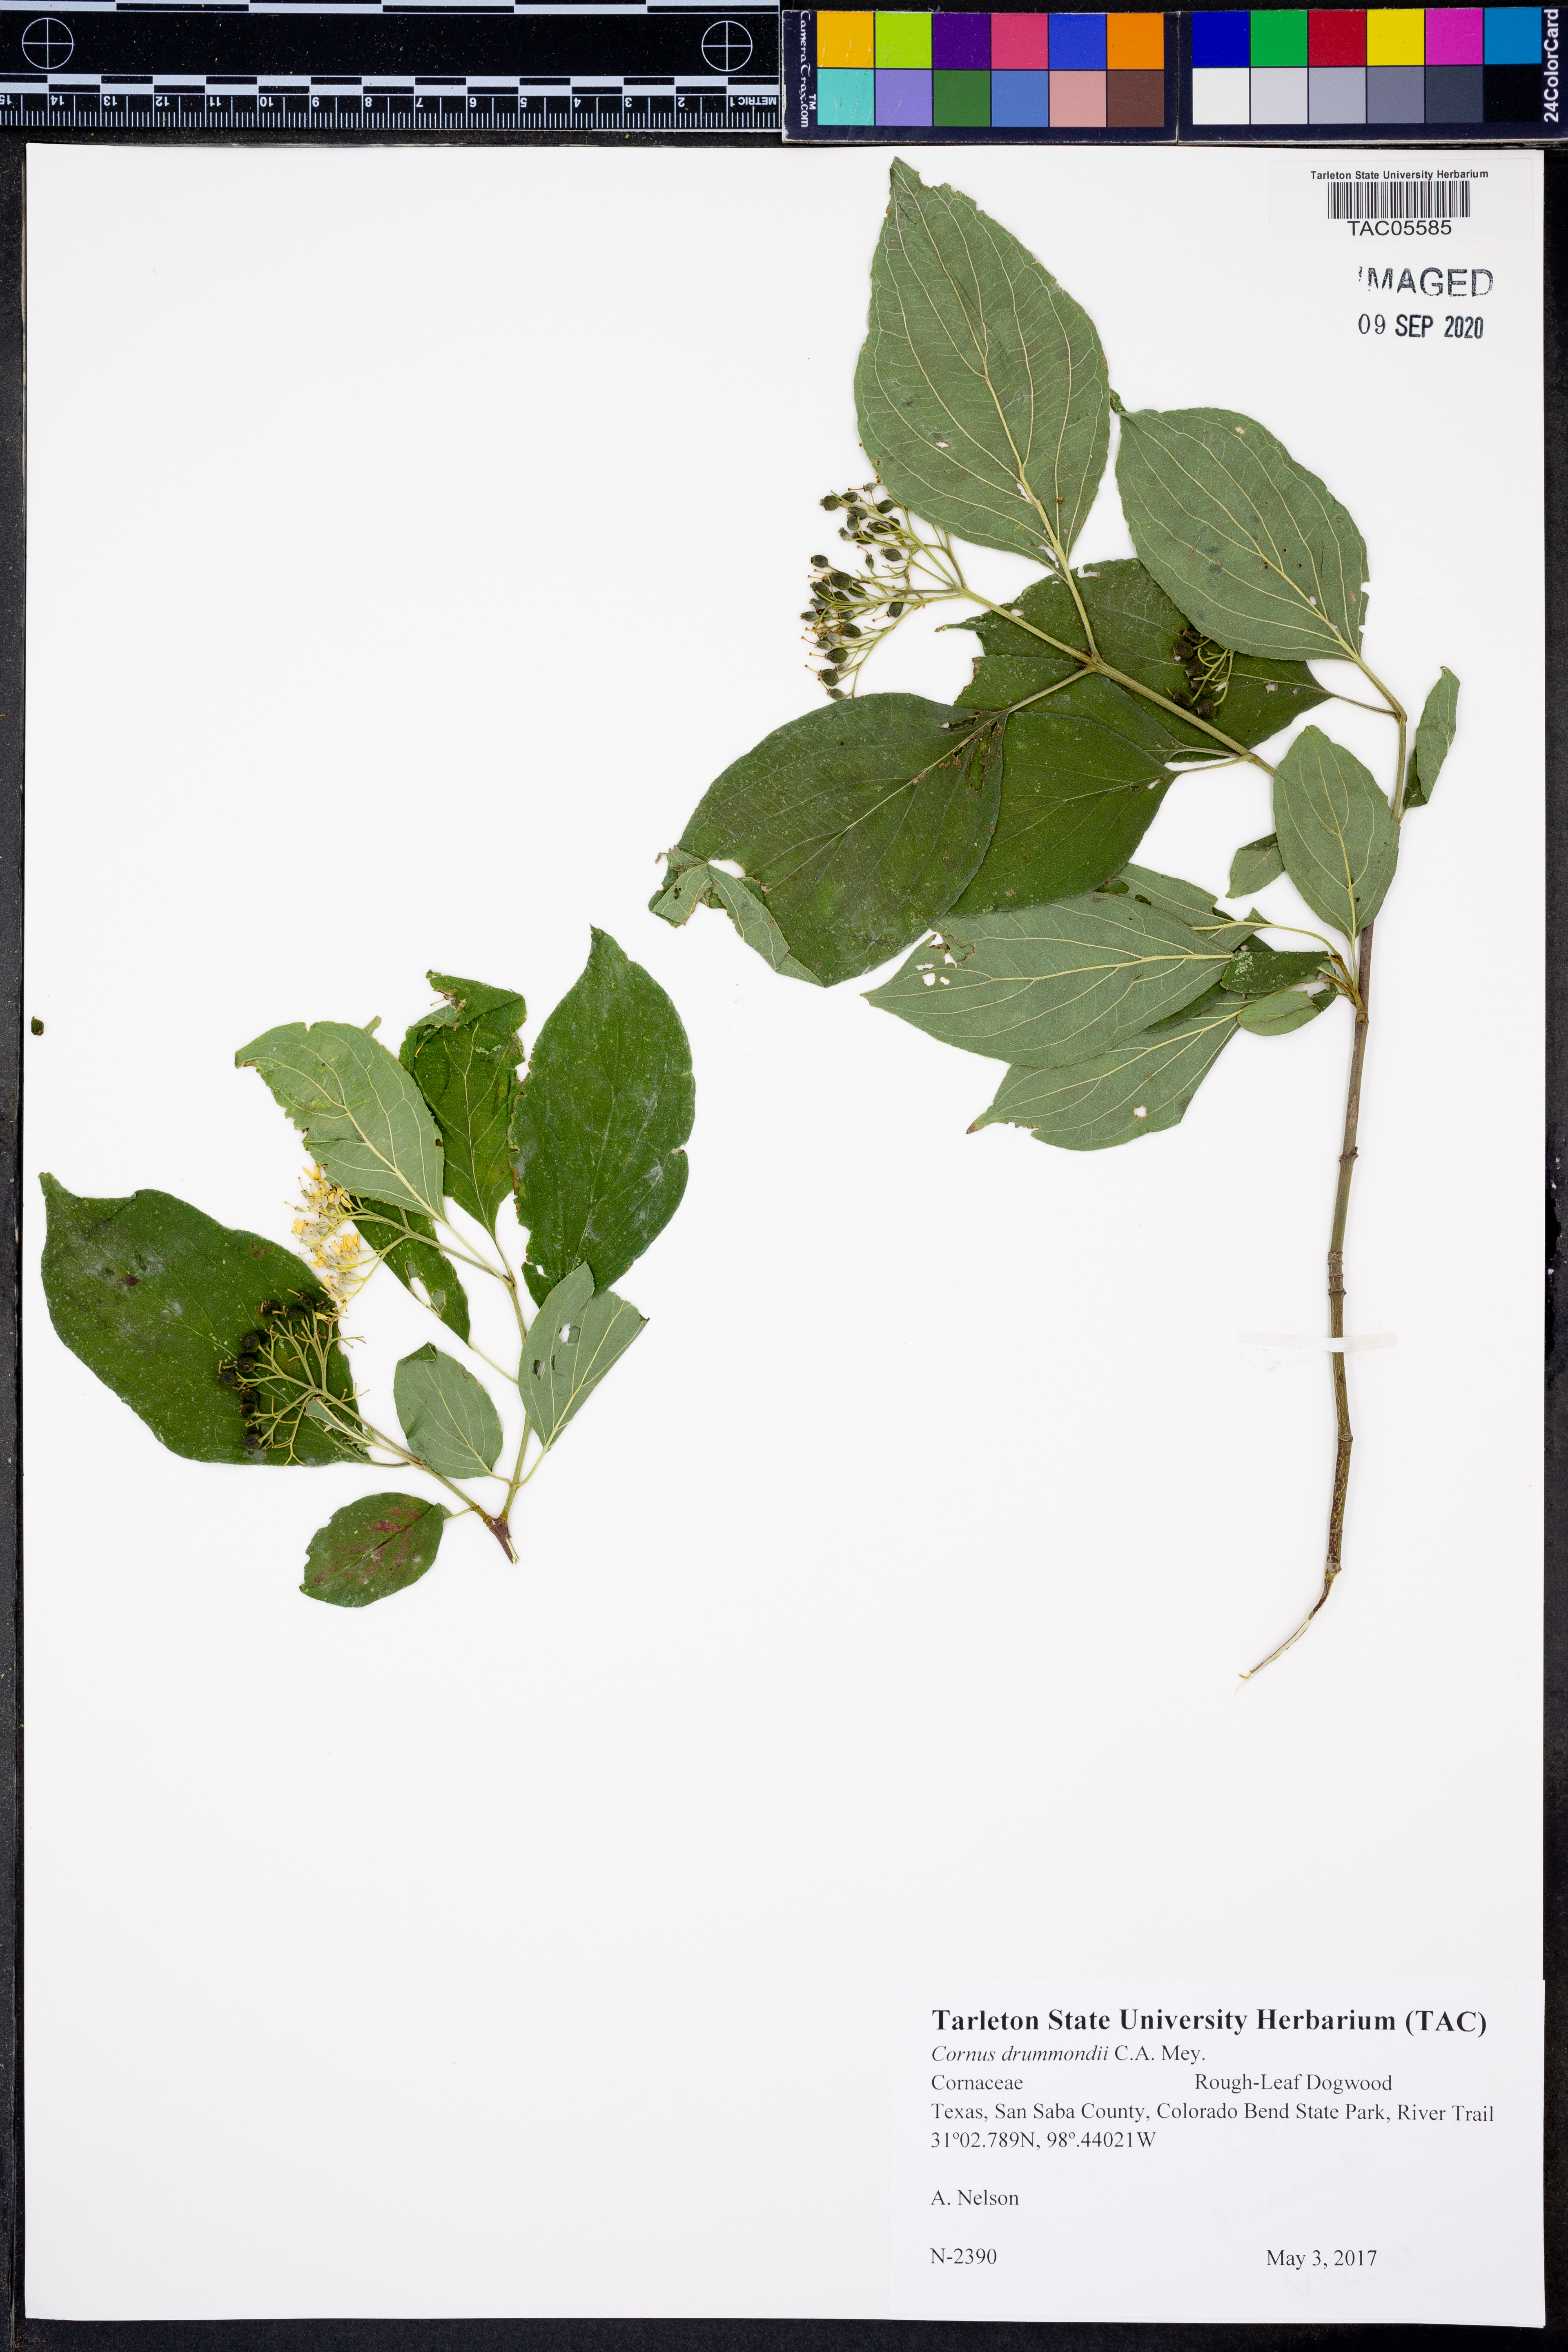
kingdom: Plantae
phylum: Tracheophyta
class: Magnoliopsida
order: Cornales
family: Cornaceae
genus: Cornus
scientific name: Cornus drummondii
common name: Rough-leaf dogwood
